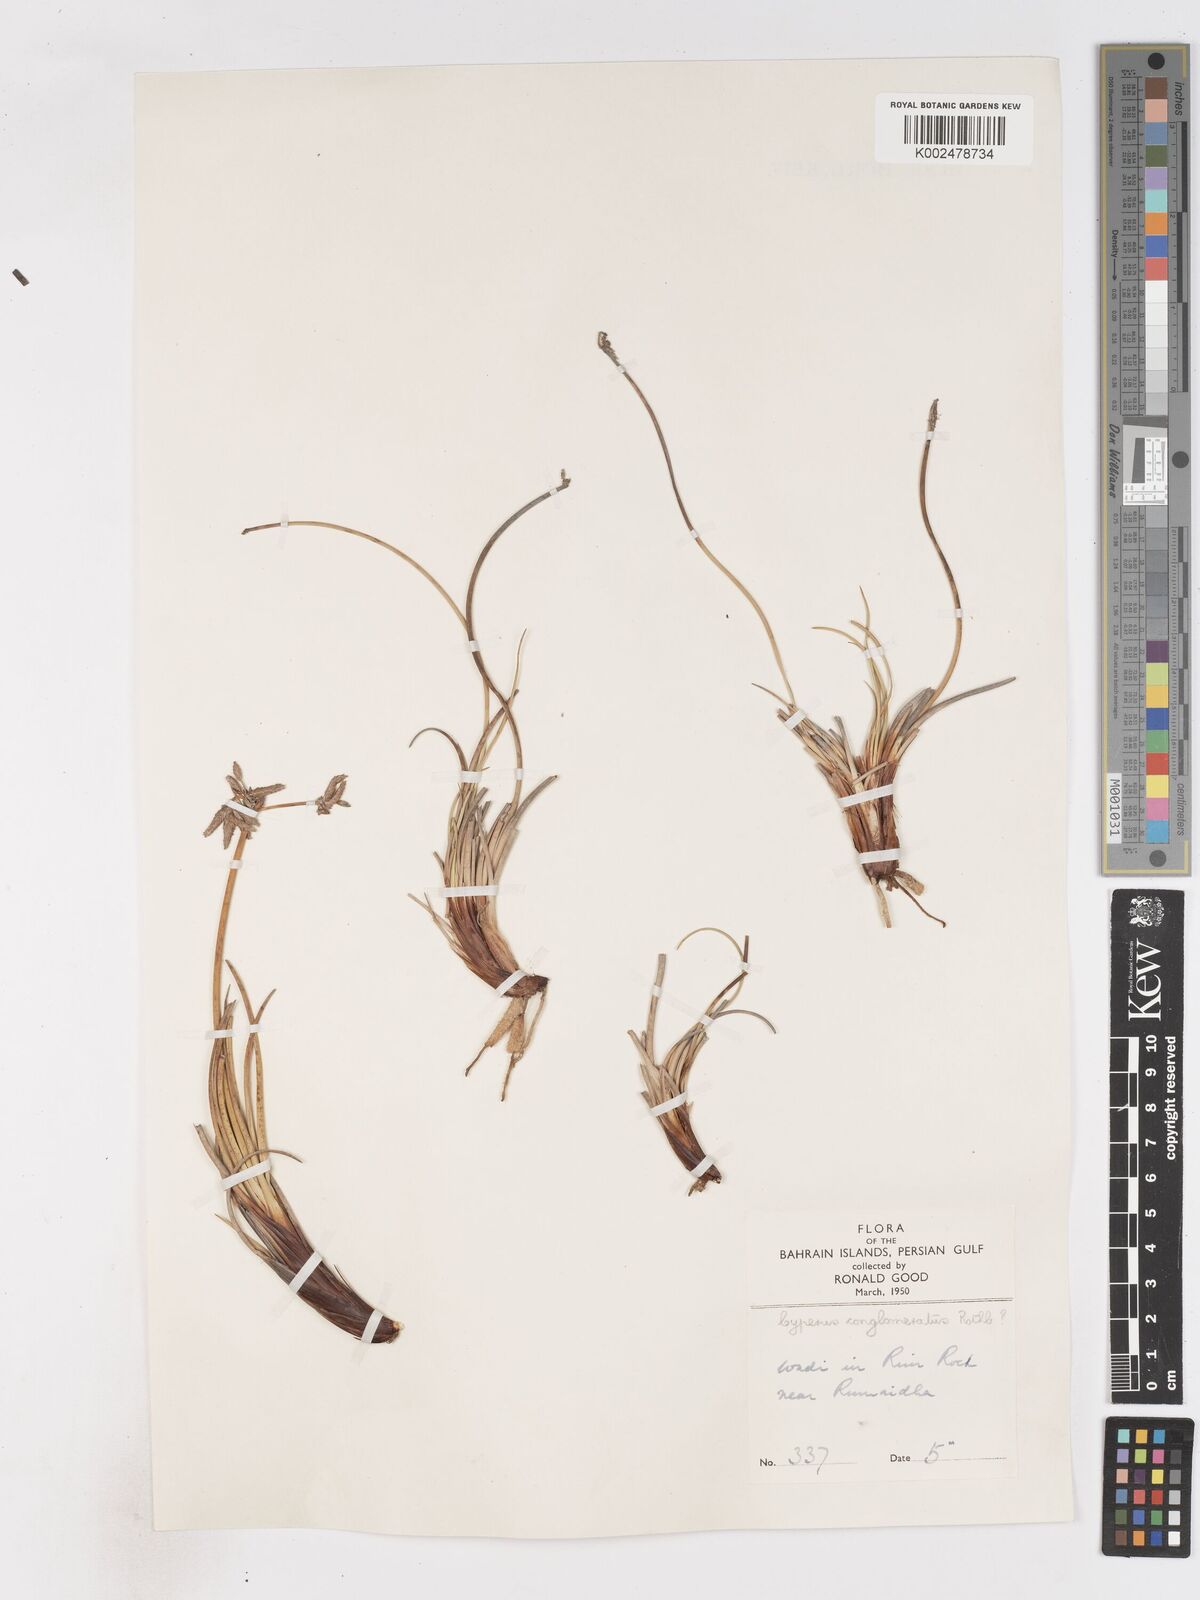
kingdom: Plantae
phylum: Tracheophyta
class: Liliopsida
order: Poales
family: Cyperaceae
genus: Cyperus
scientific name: Cyperus conglomeratus
